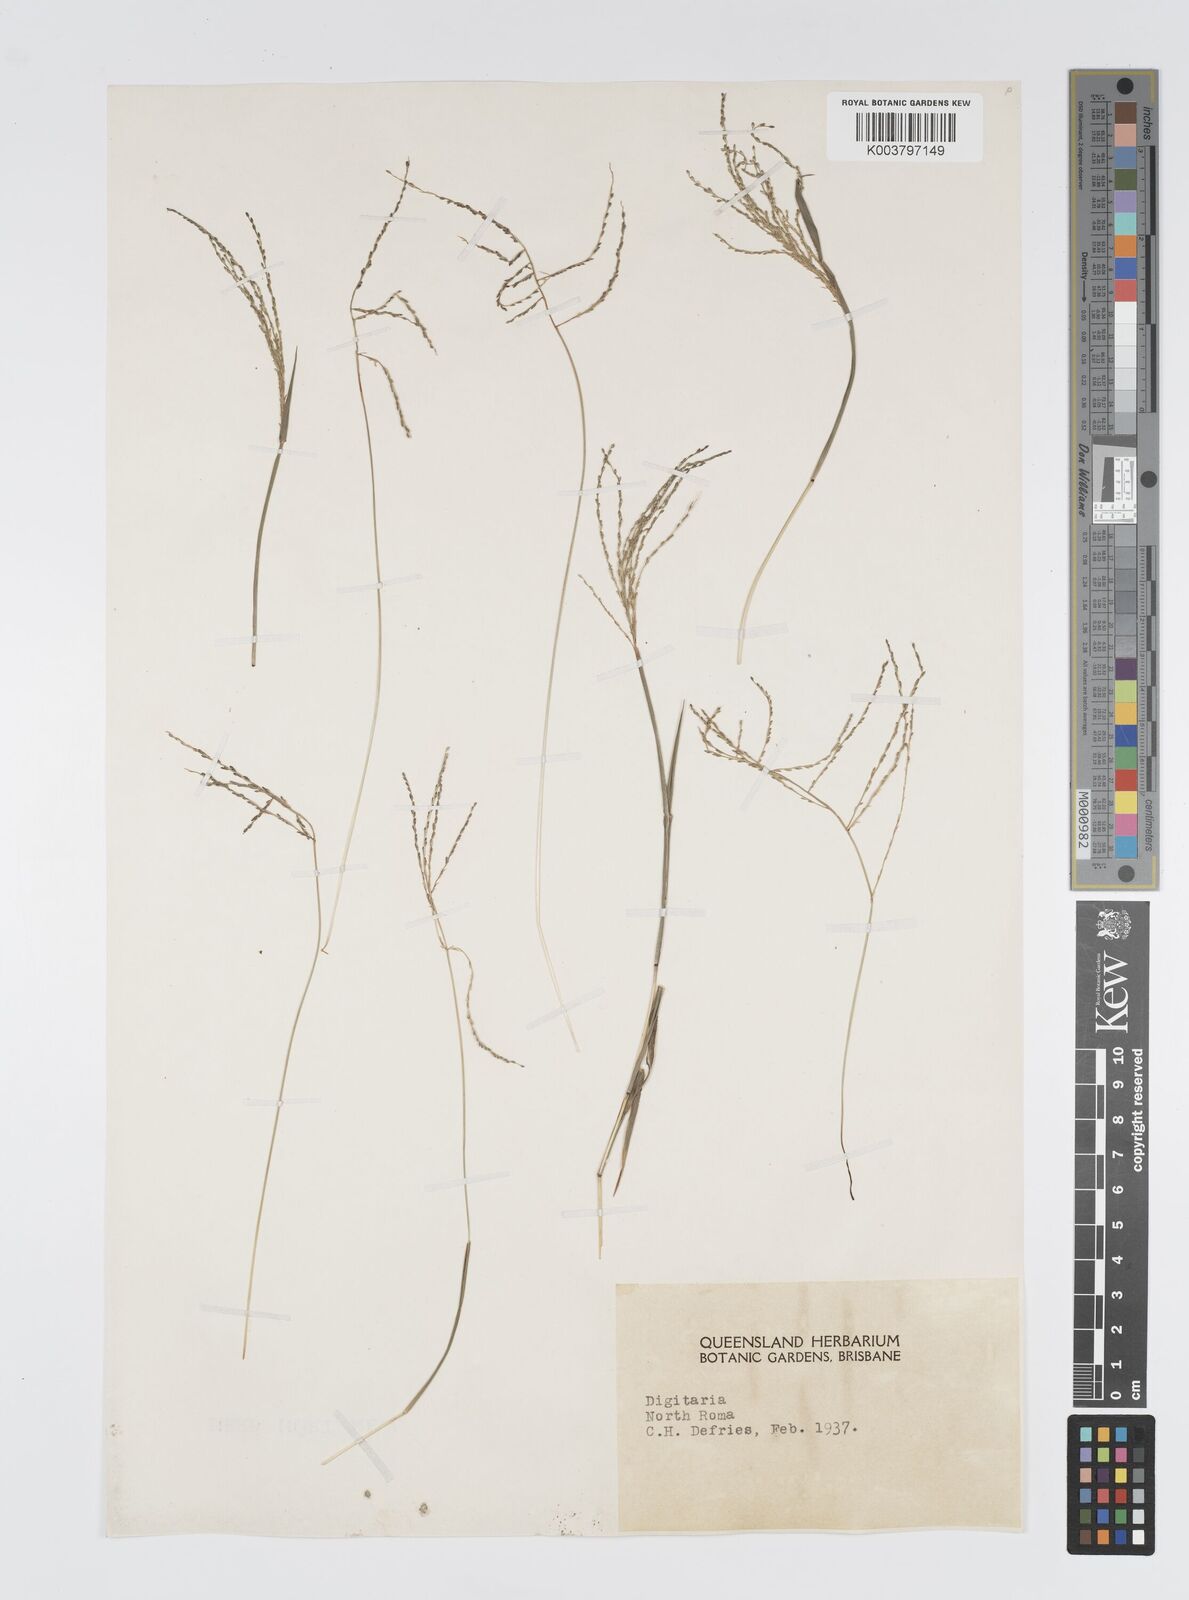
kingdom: Plantae
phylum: Tracheophyta
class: Liliopsida
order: Poales
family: Poaceae
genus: Digitaria
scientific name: Digitaria spec
